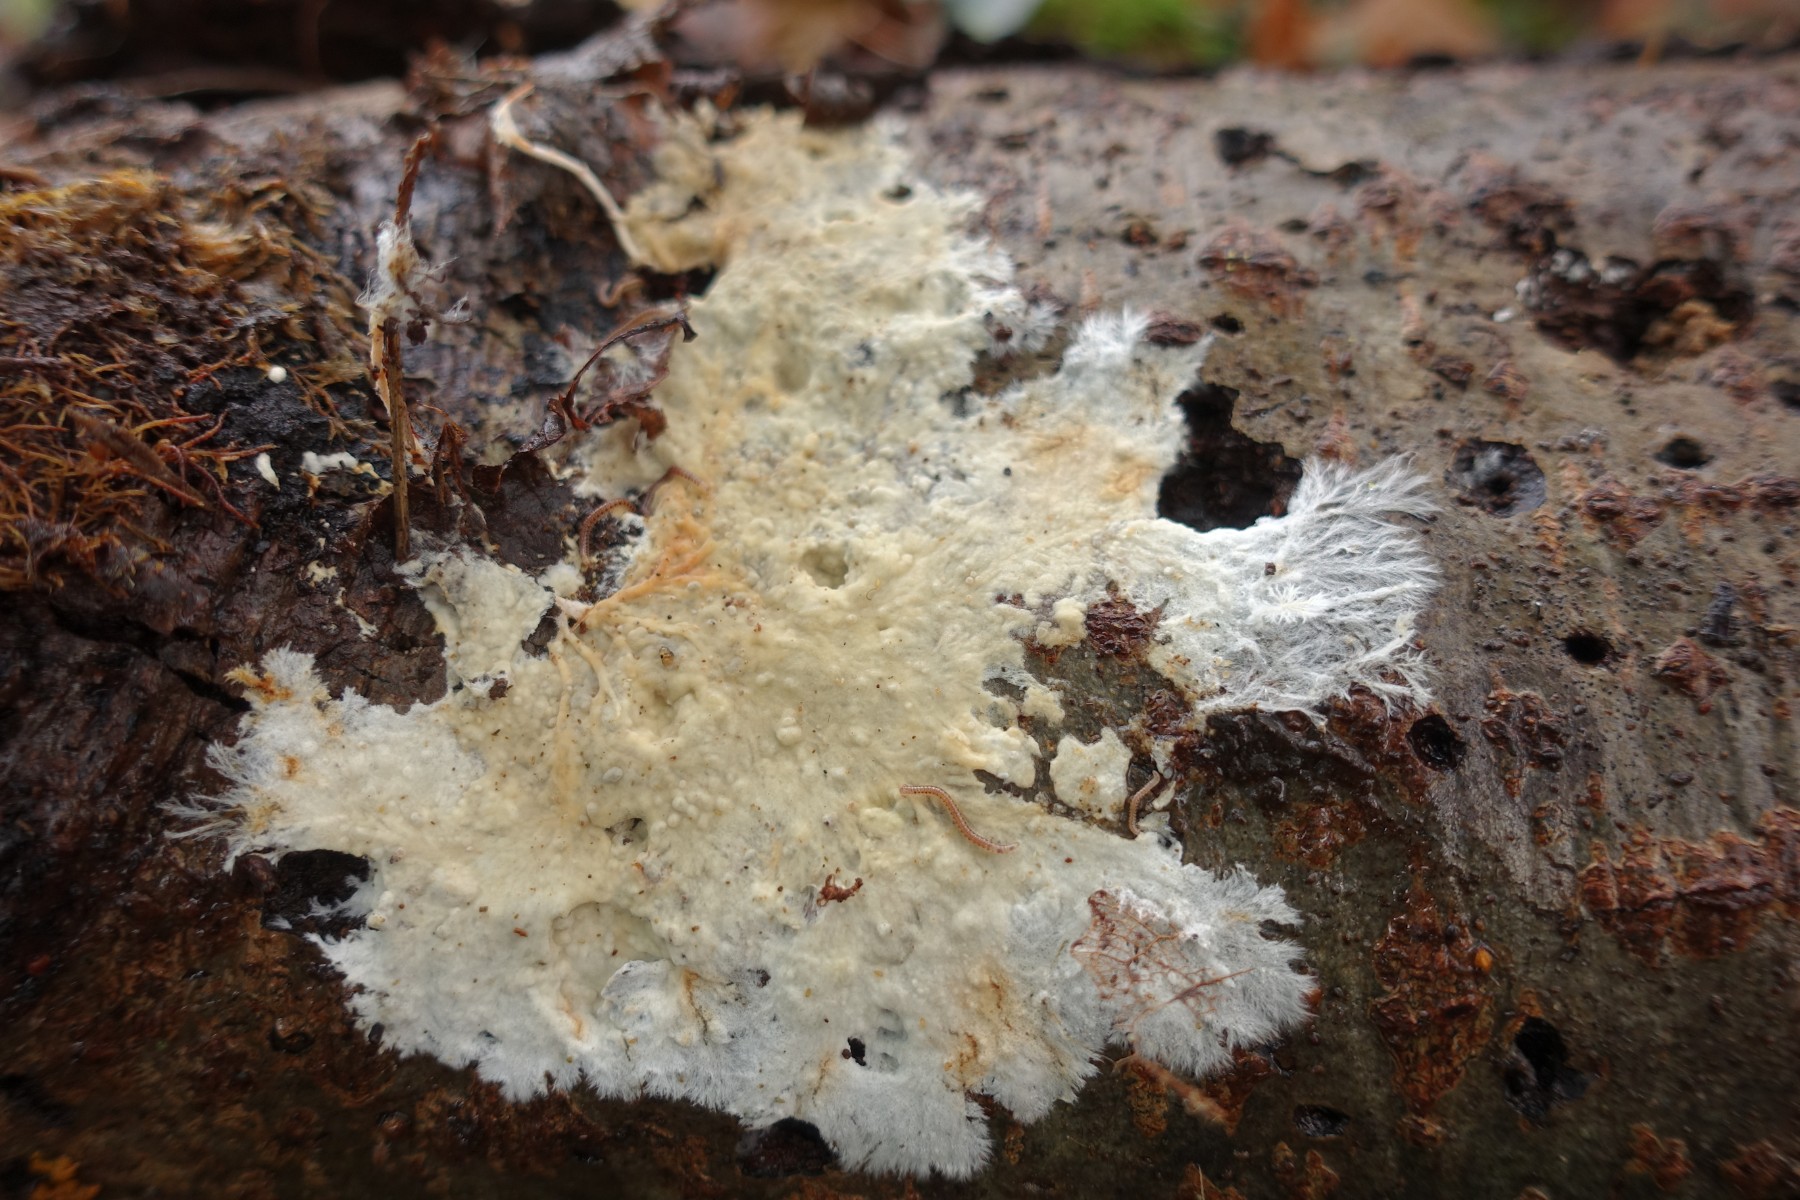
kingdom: Fungi
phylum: Basidiomycota
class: Agaricomycetes
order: Polyporales
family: Phanerochaetaceae
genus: Phanerochaete
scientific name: Phanerochaete
